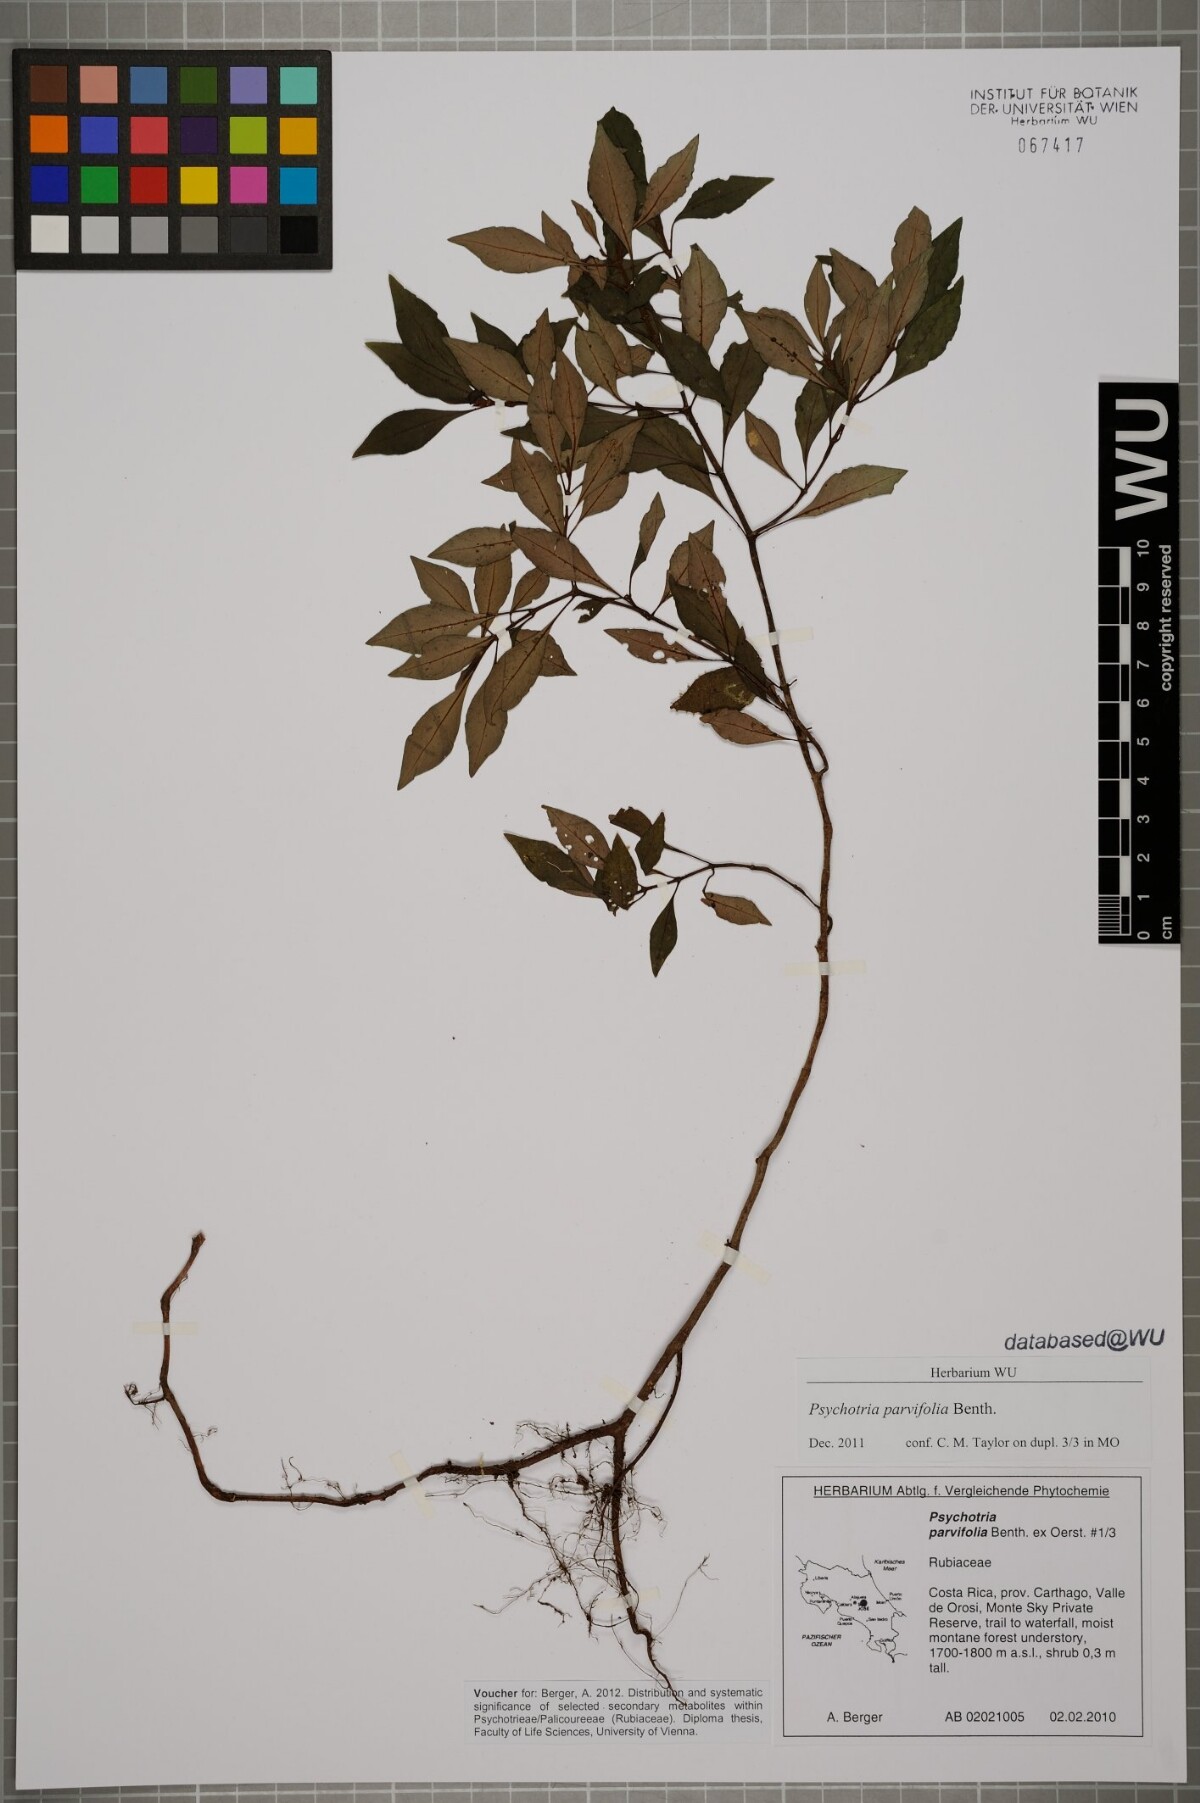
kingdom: Plantae
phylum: Tracheophyta
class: Magnoliopsida
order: Gentianales
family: Rubiaceae
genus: Psychotria
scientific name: Psychotria parvifolia
